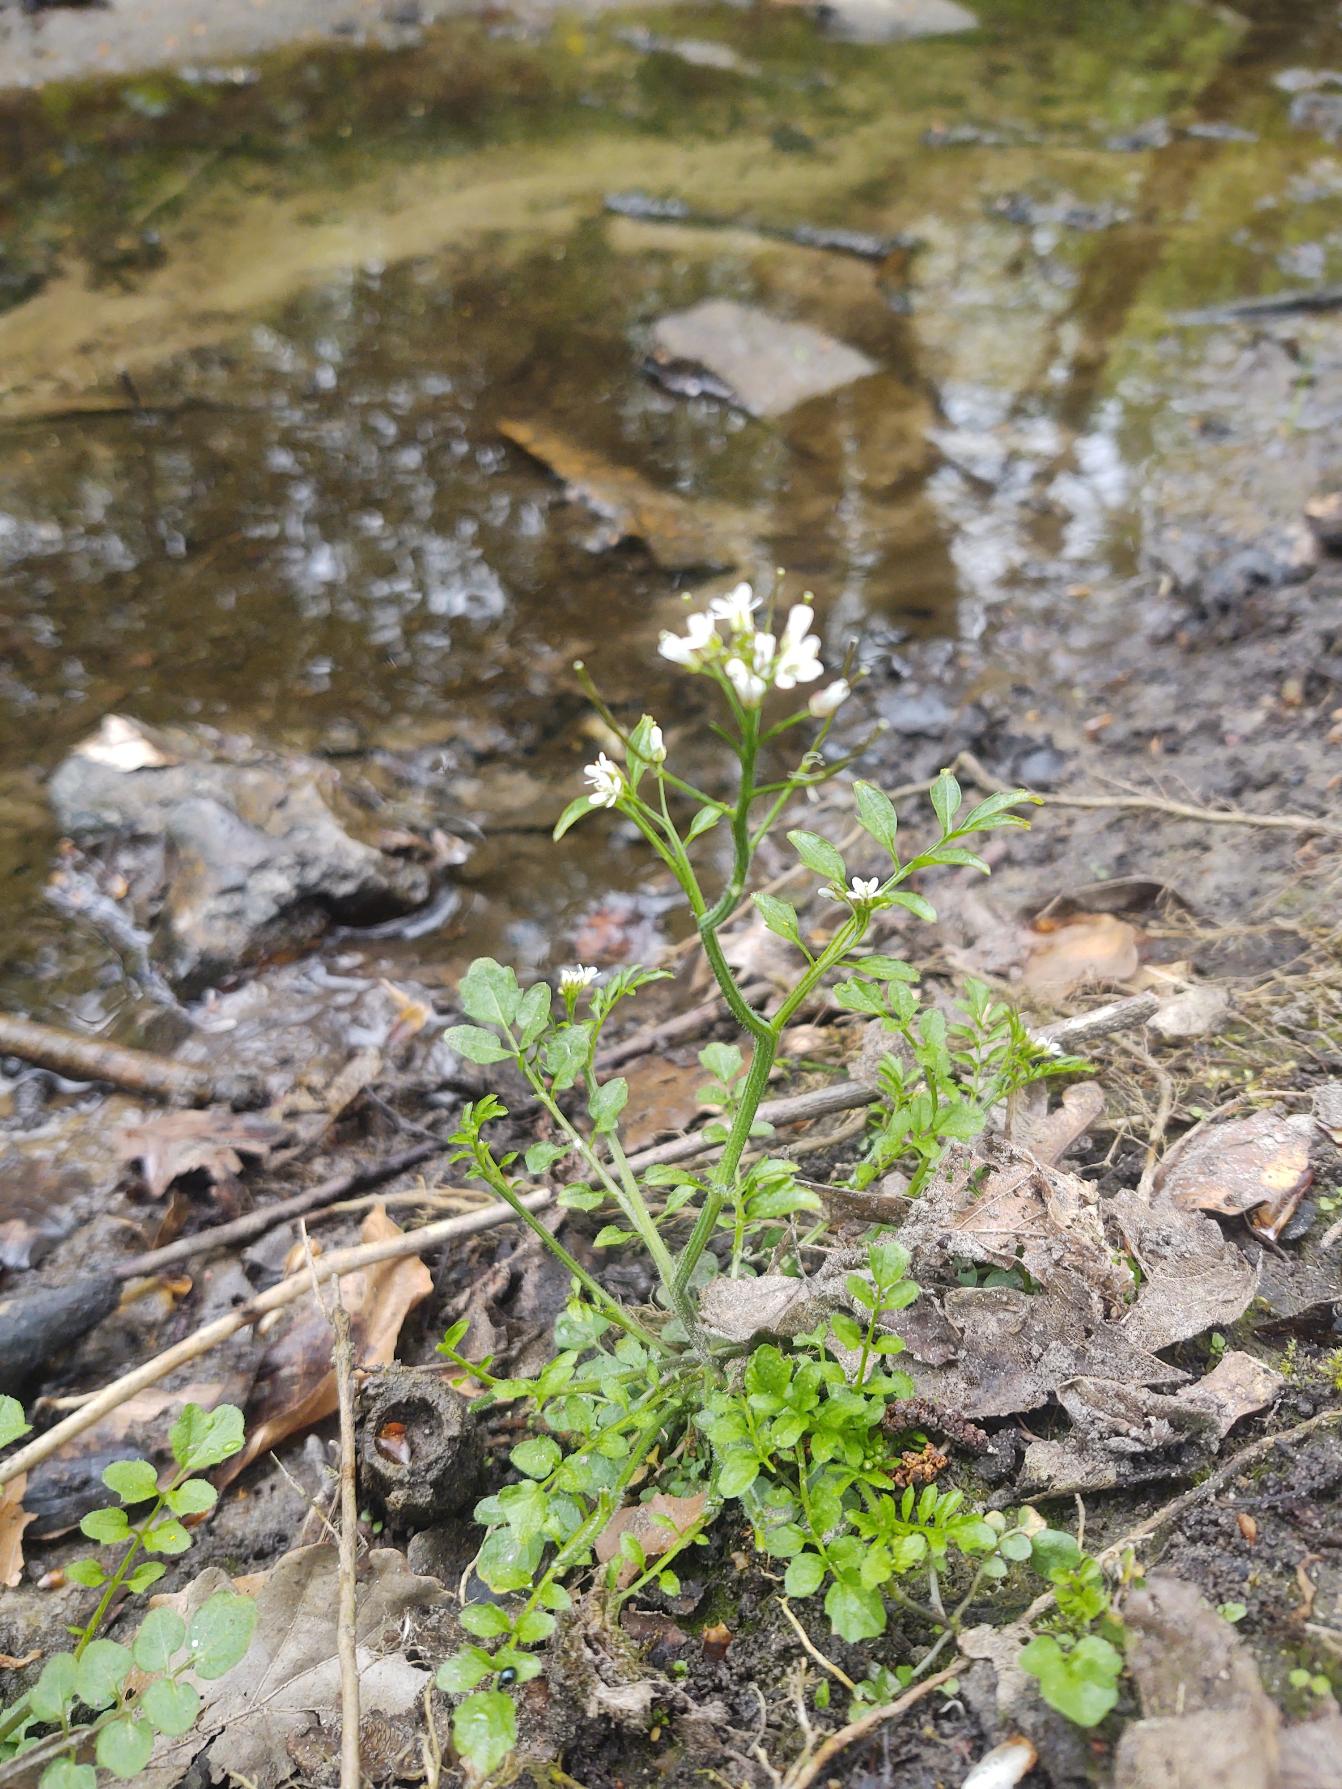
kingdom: Plantae
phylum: Tracheophyta
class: Magnoliopsida
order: Brassicales
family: Brassicaceae
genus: Cardamine
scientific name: Cardamine flexuosa
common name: Skov-springklap
